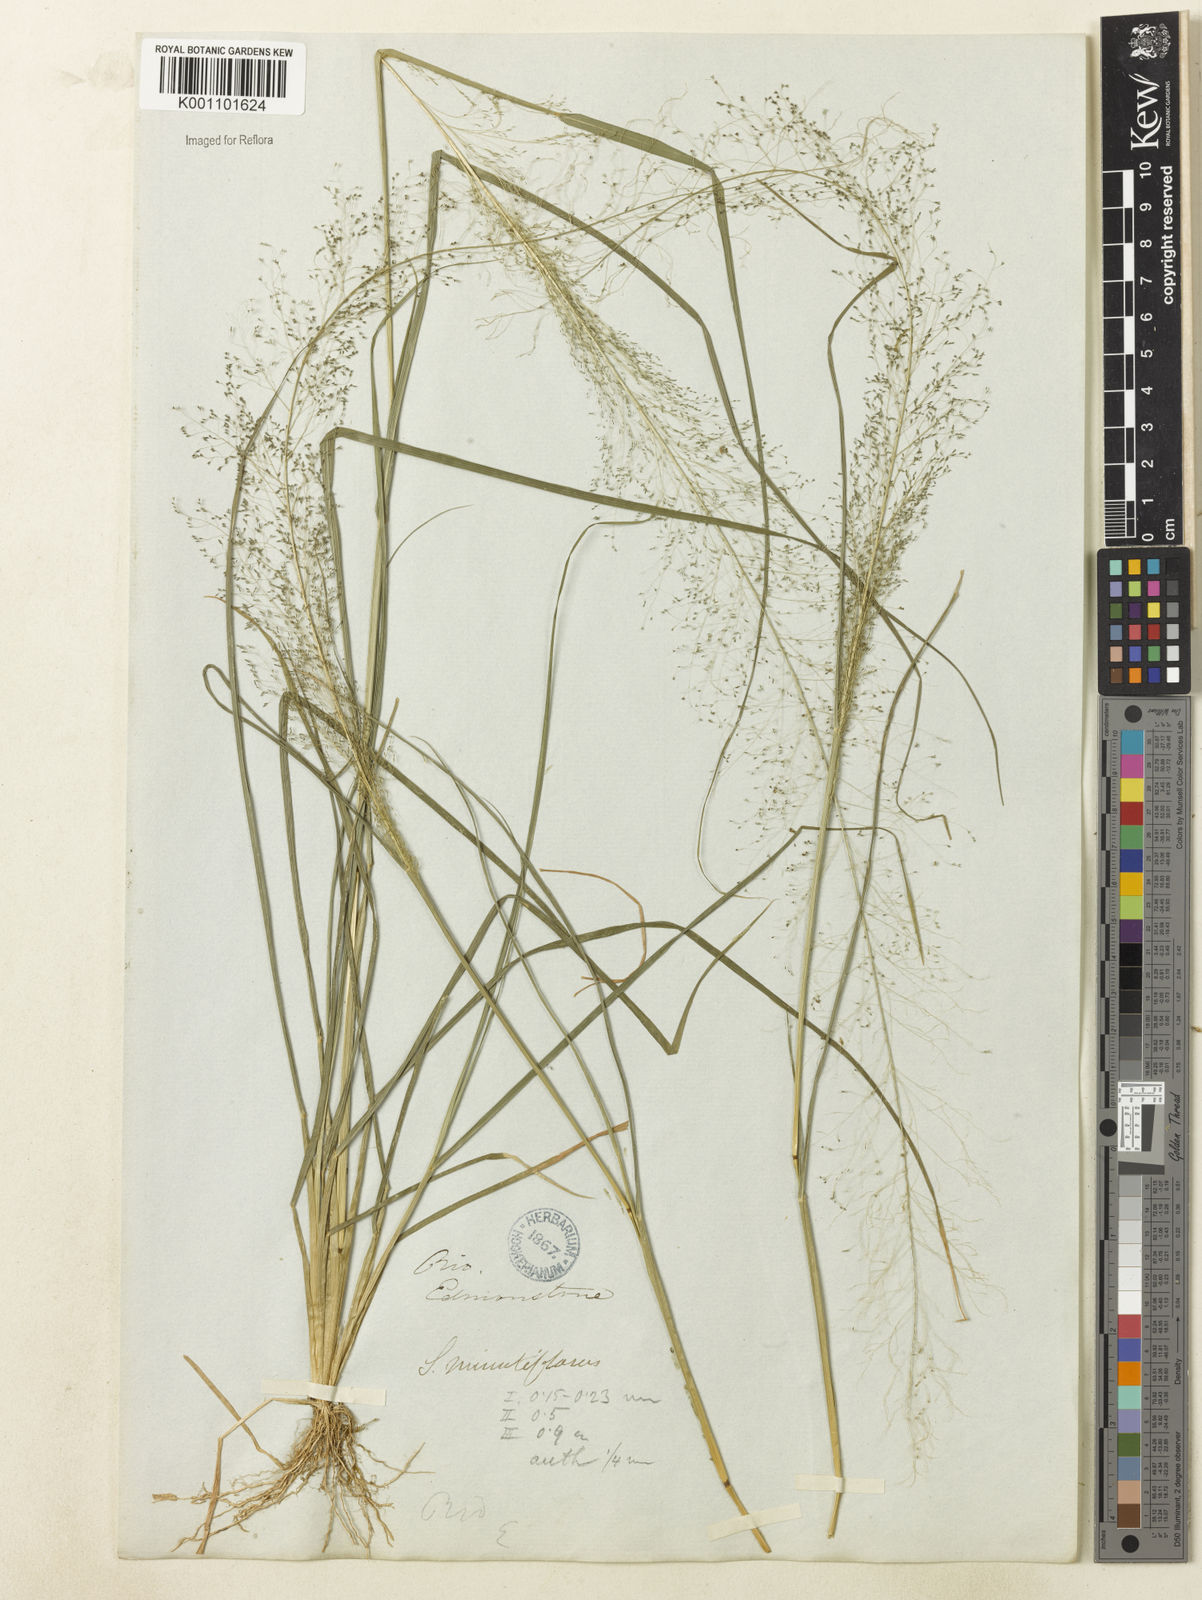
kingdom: Plantae
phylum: Tracheophyta
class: Liliopsida
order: Poales
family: Poaceae
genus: Sporobolus
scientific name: Sporobolus tenuissimus
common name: Tropical dropseed
